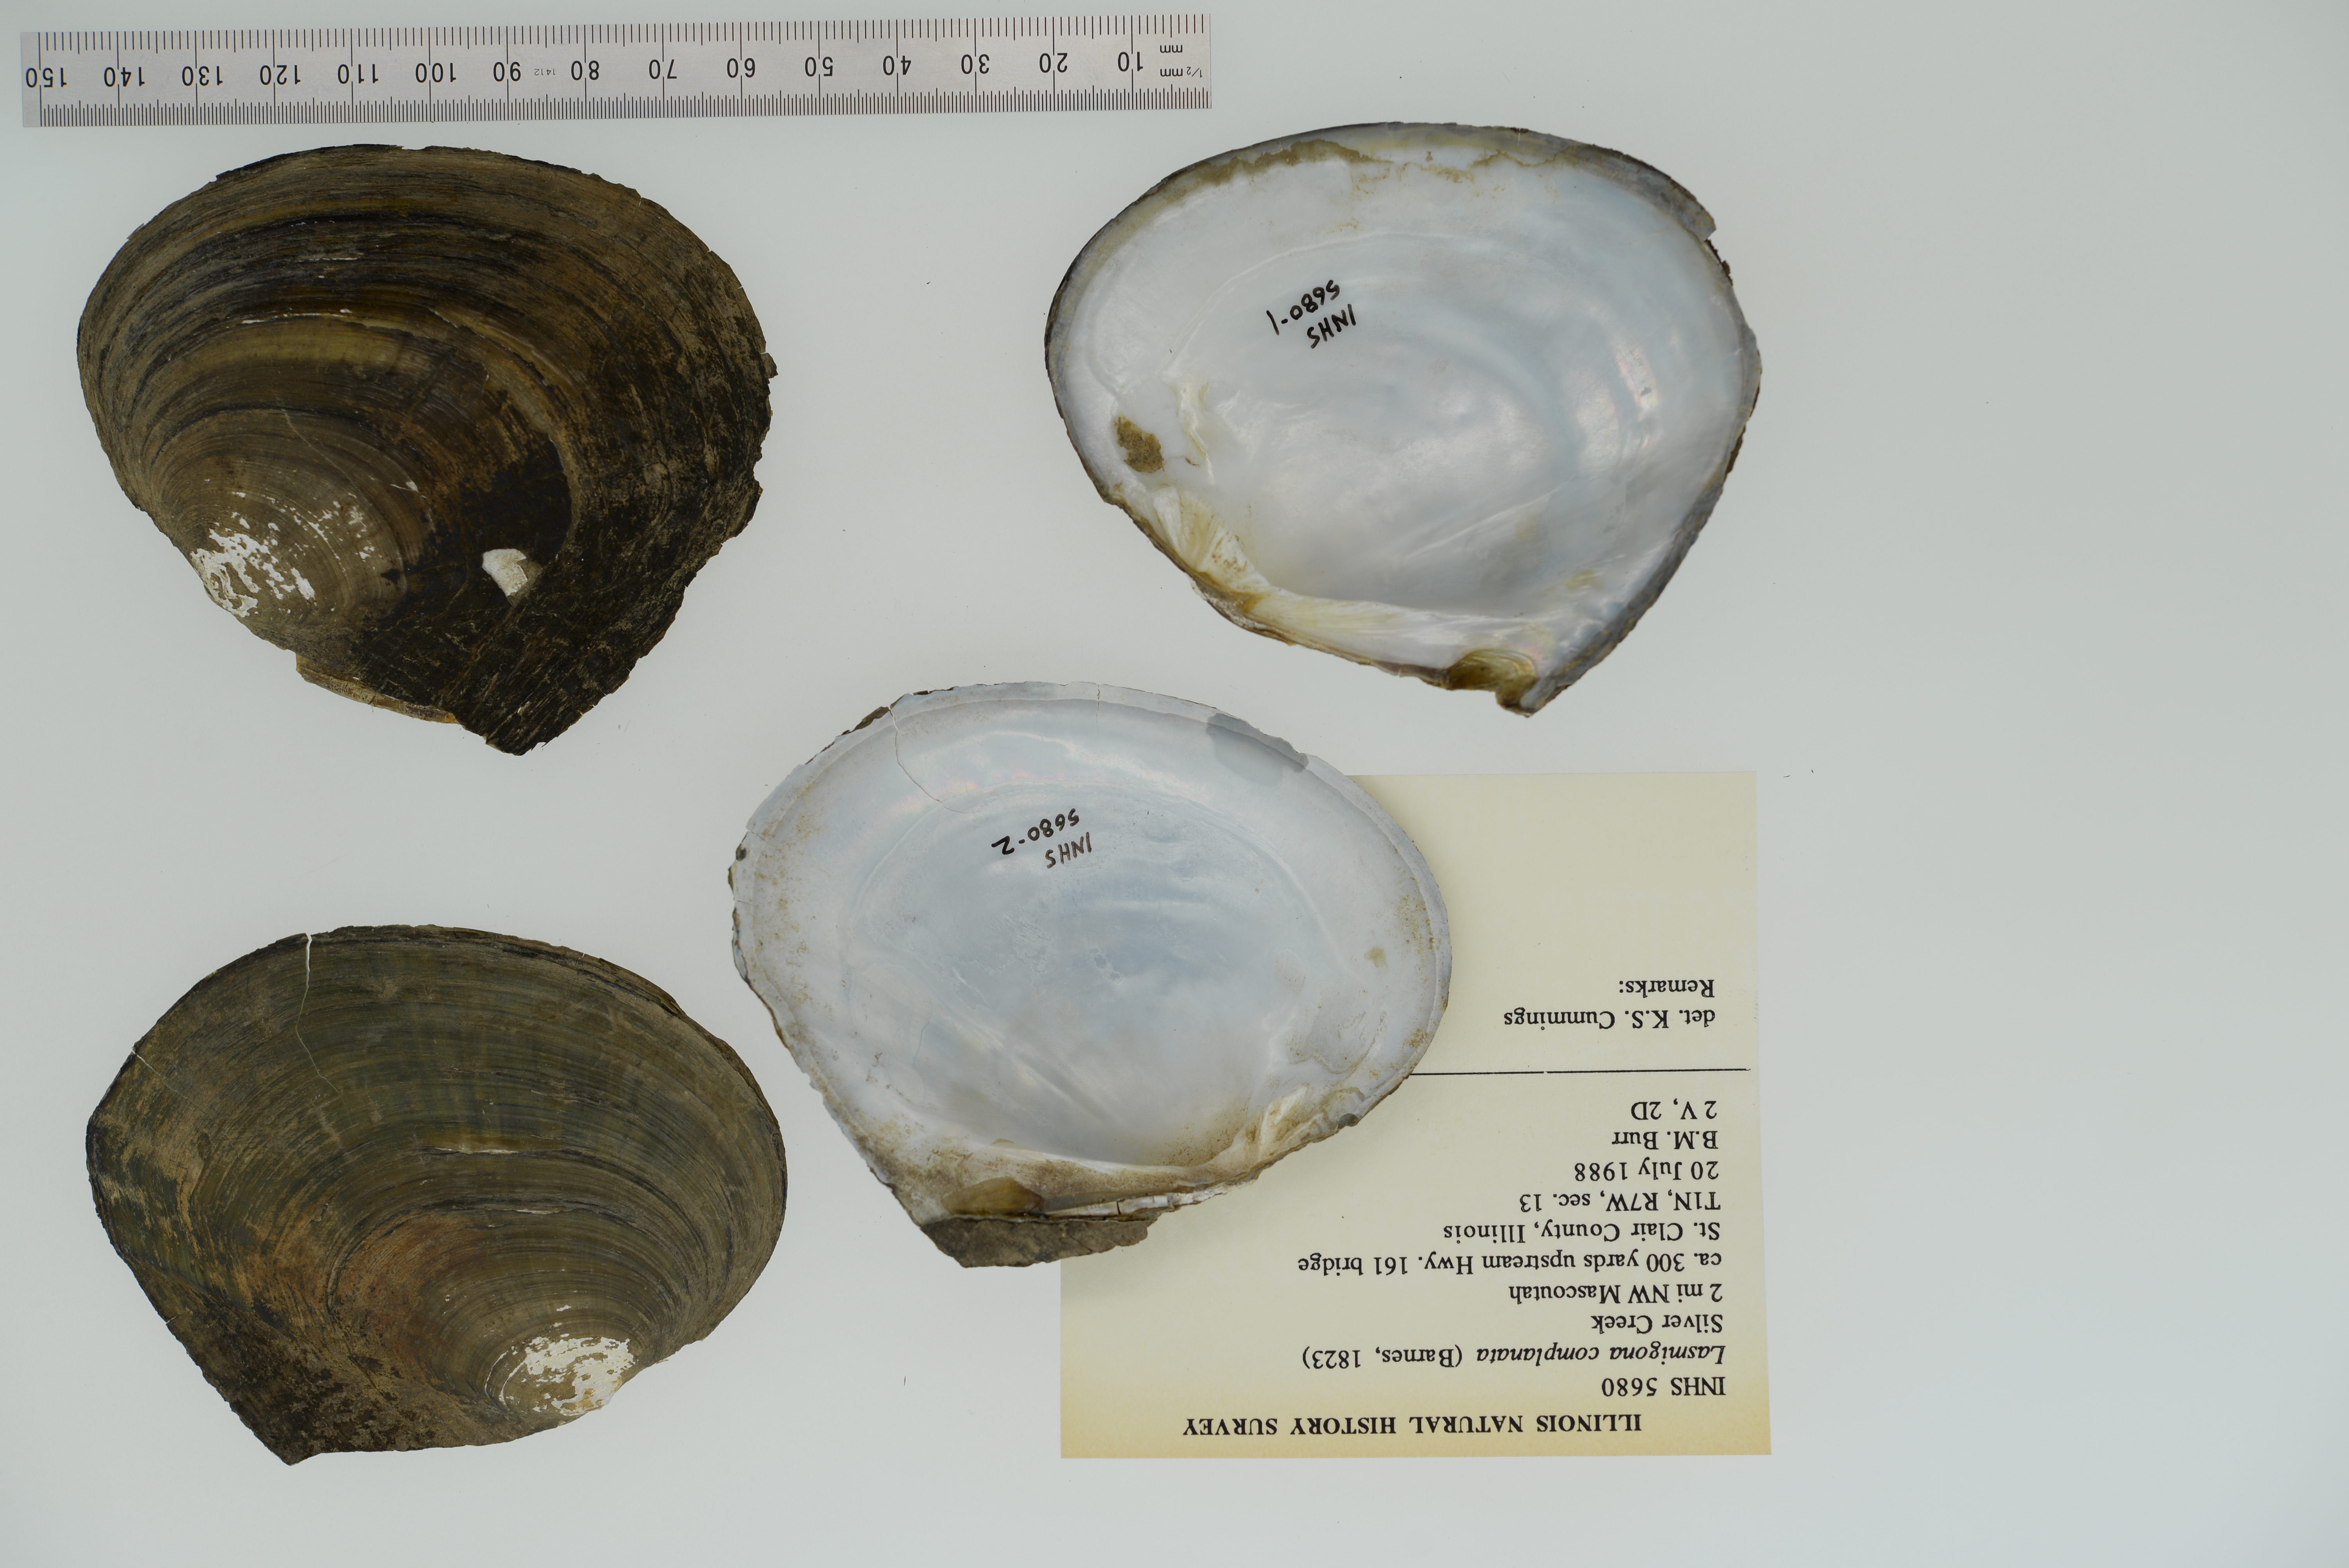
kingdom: Animalia
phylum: Mollusca
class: Bivalvia
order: Unionida
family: Unionidae
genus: Lasmigona
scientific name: Lasmigona complanata
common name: White heelsplitter
